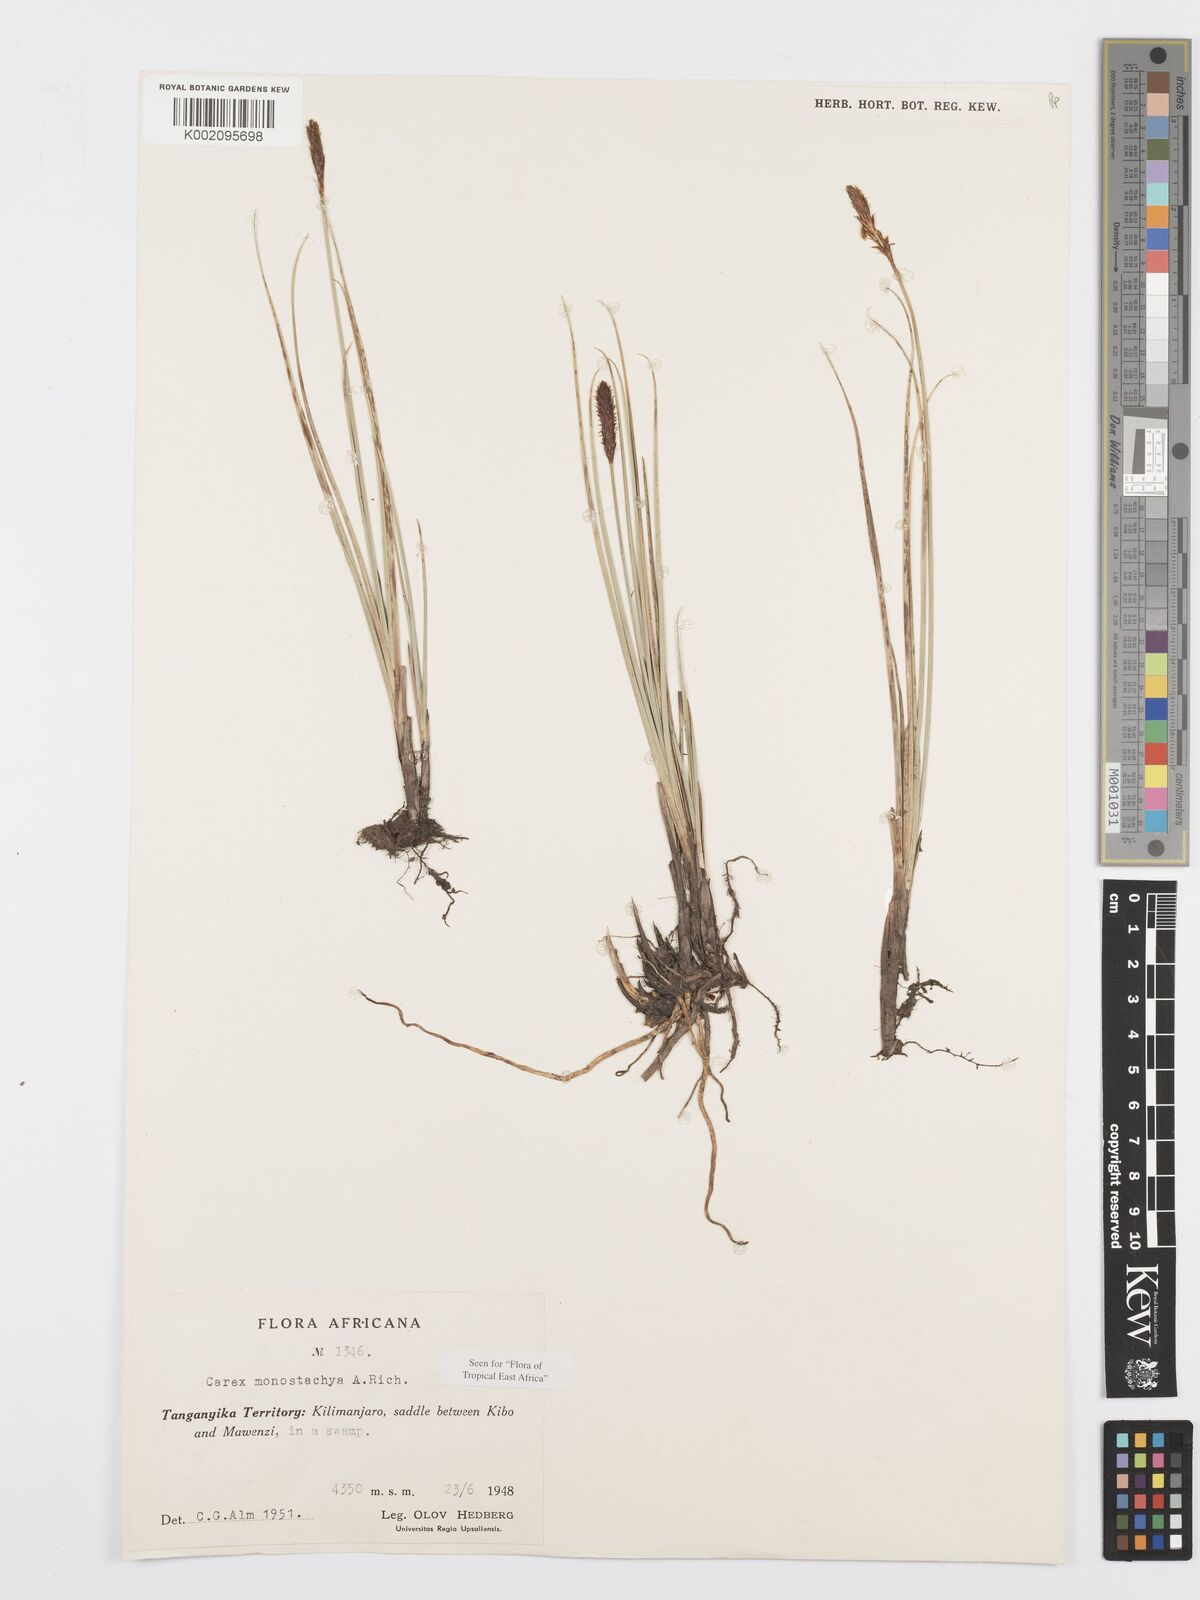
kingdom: Plantae
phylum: Tracheophyta
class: Liliopsida
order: Poales
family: Cyperaceae
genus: Carex
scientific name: Carex monostachya
